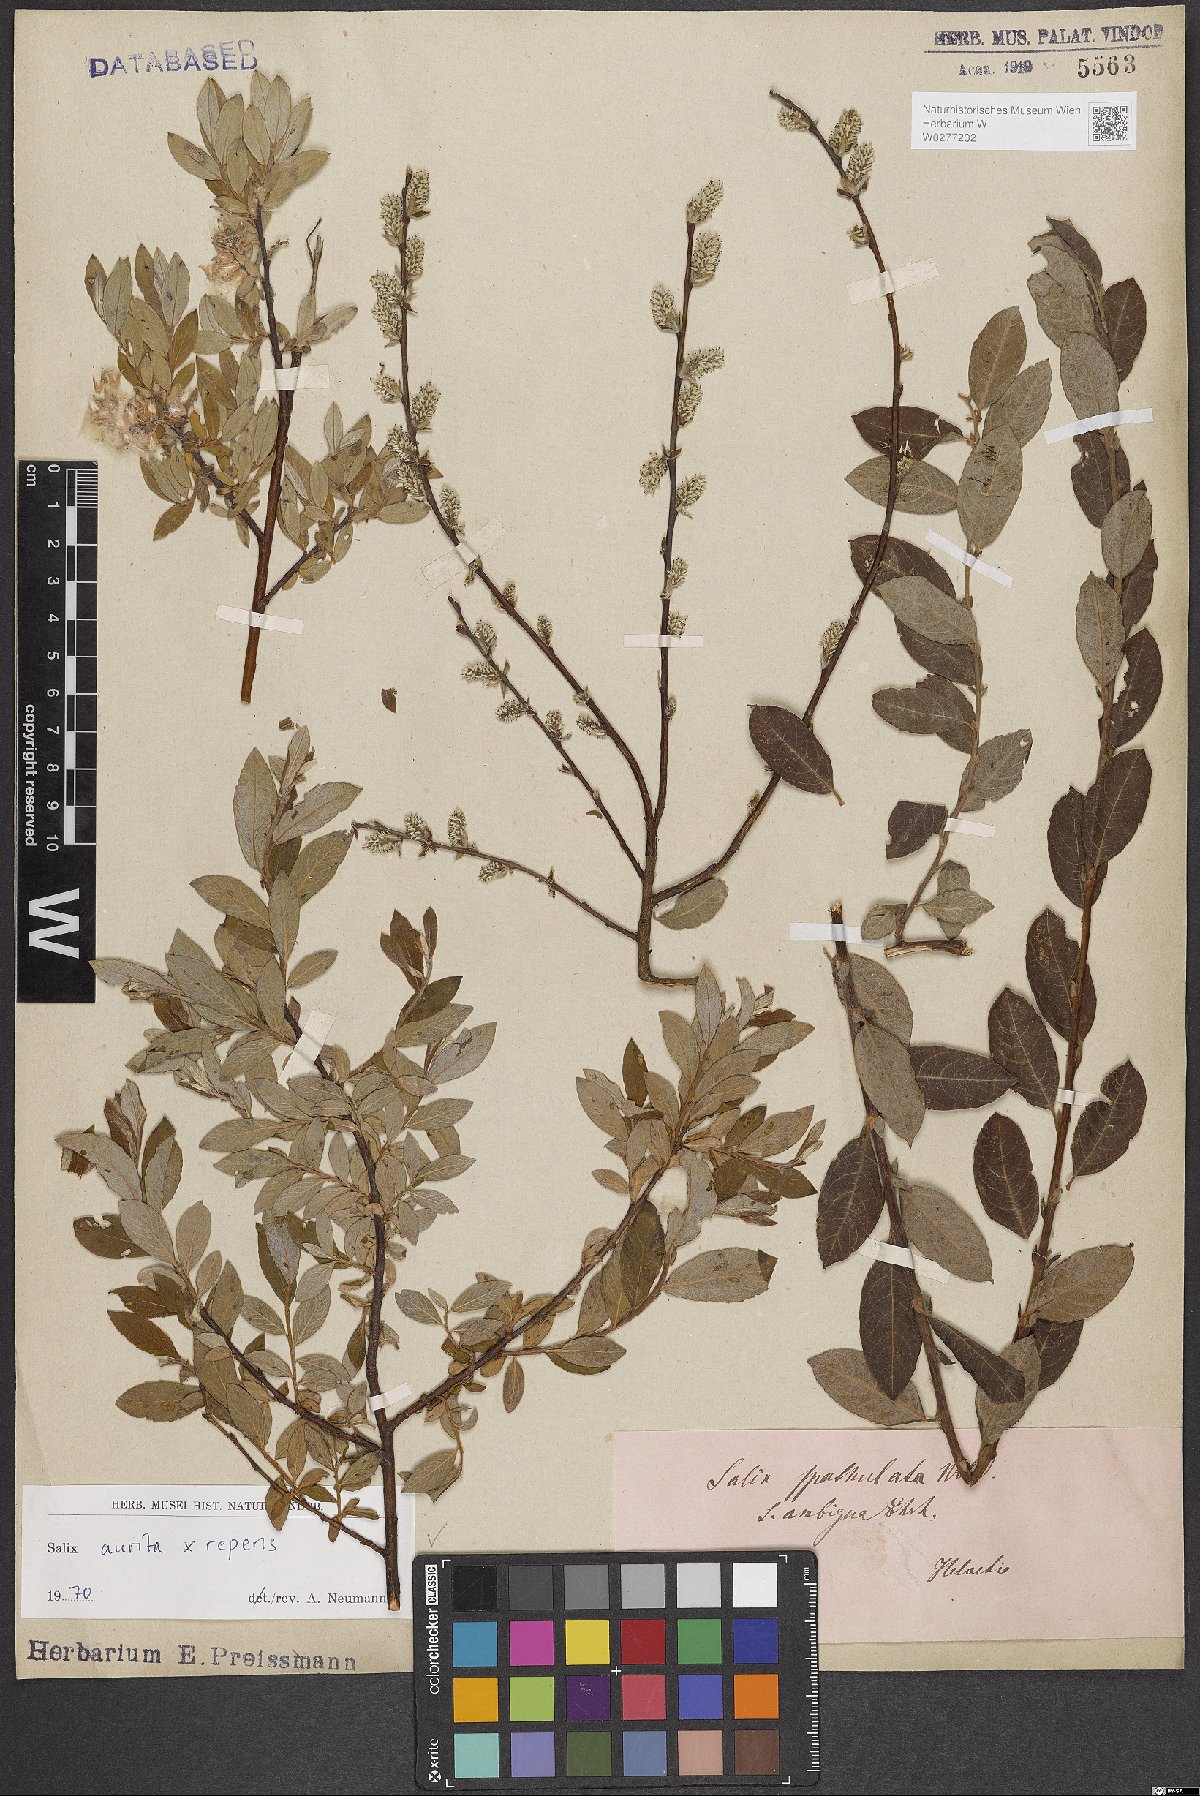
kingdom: Plantae
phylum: Tracheophyta
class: Magnoliopsida
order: Malpighiales
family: Salicaceae
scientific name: Salicaceae
